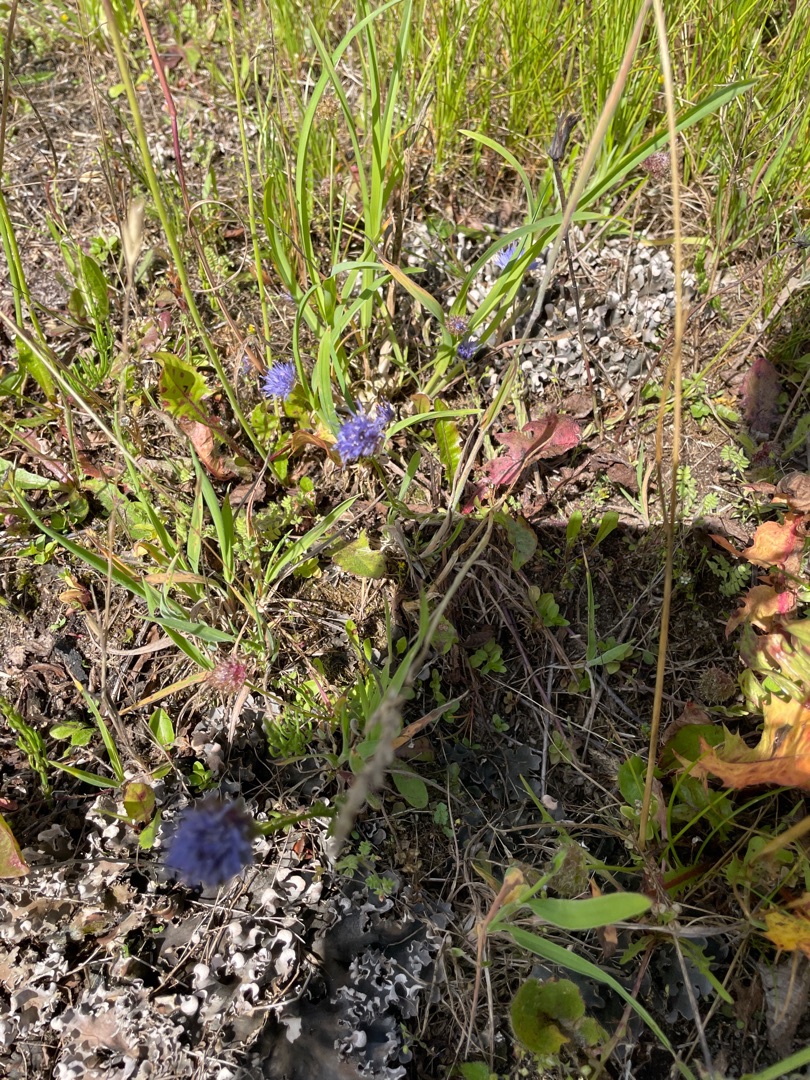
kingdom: Plantae
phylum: Tracheophyta
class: Magnoliopsida
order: Asterales
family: Campanulaceae
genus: Jasione
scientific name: Jasione montana
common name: Blåmunke
